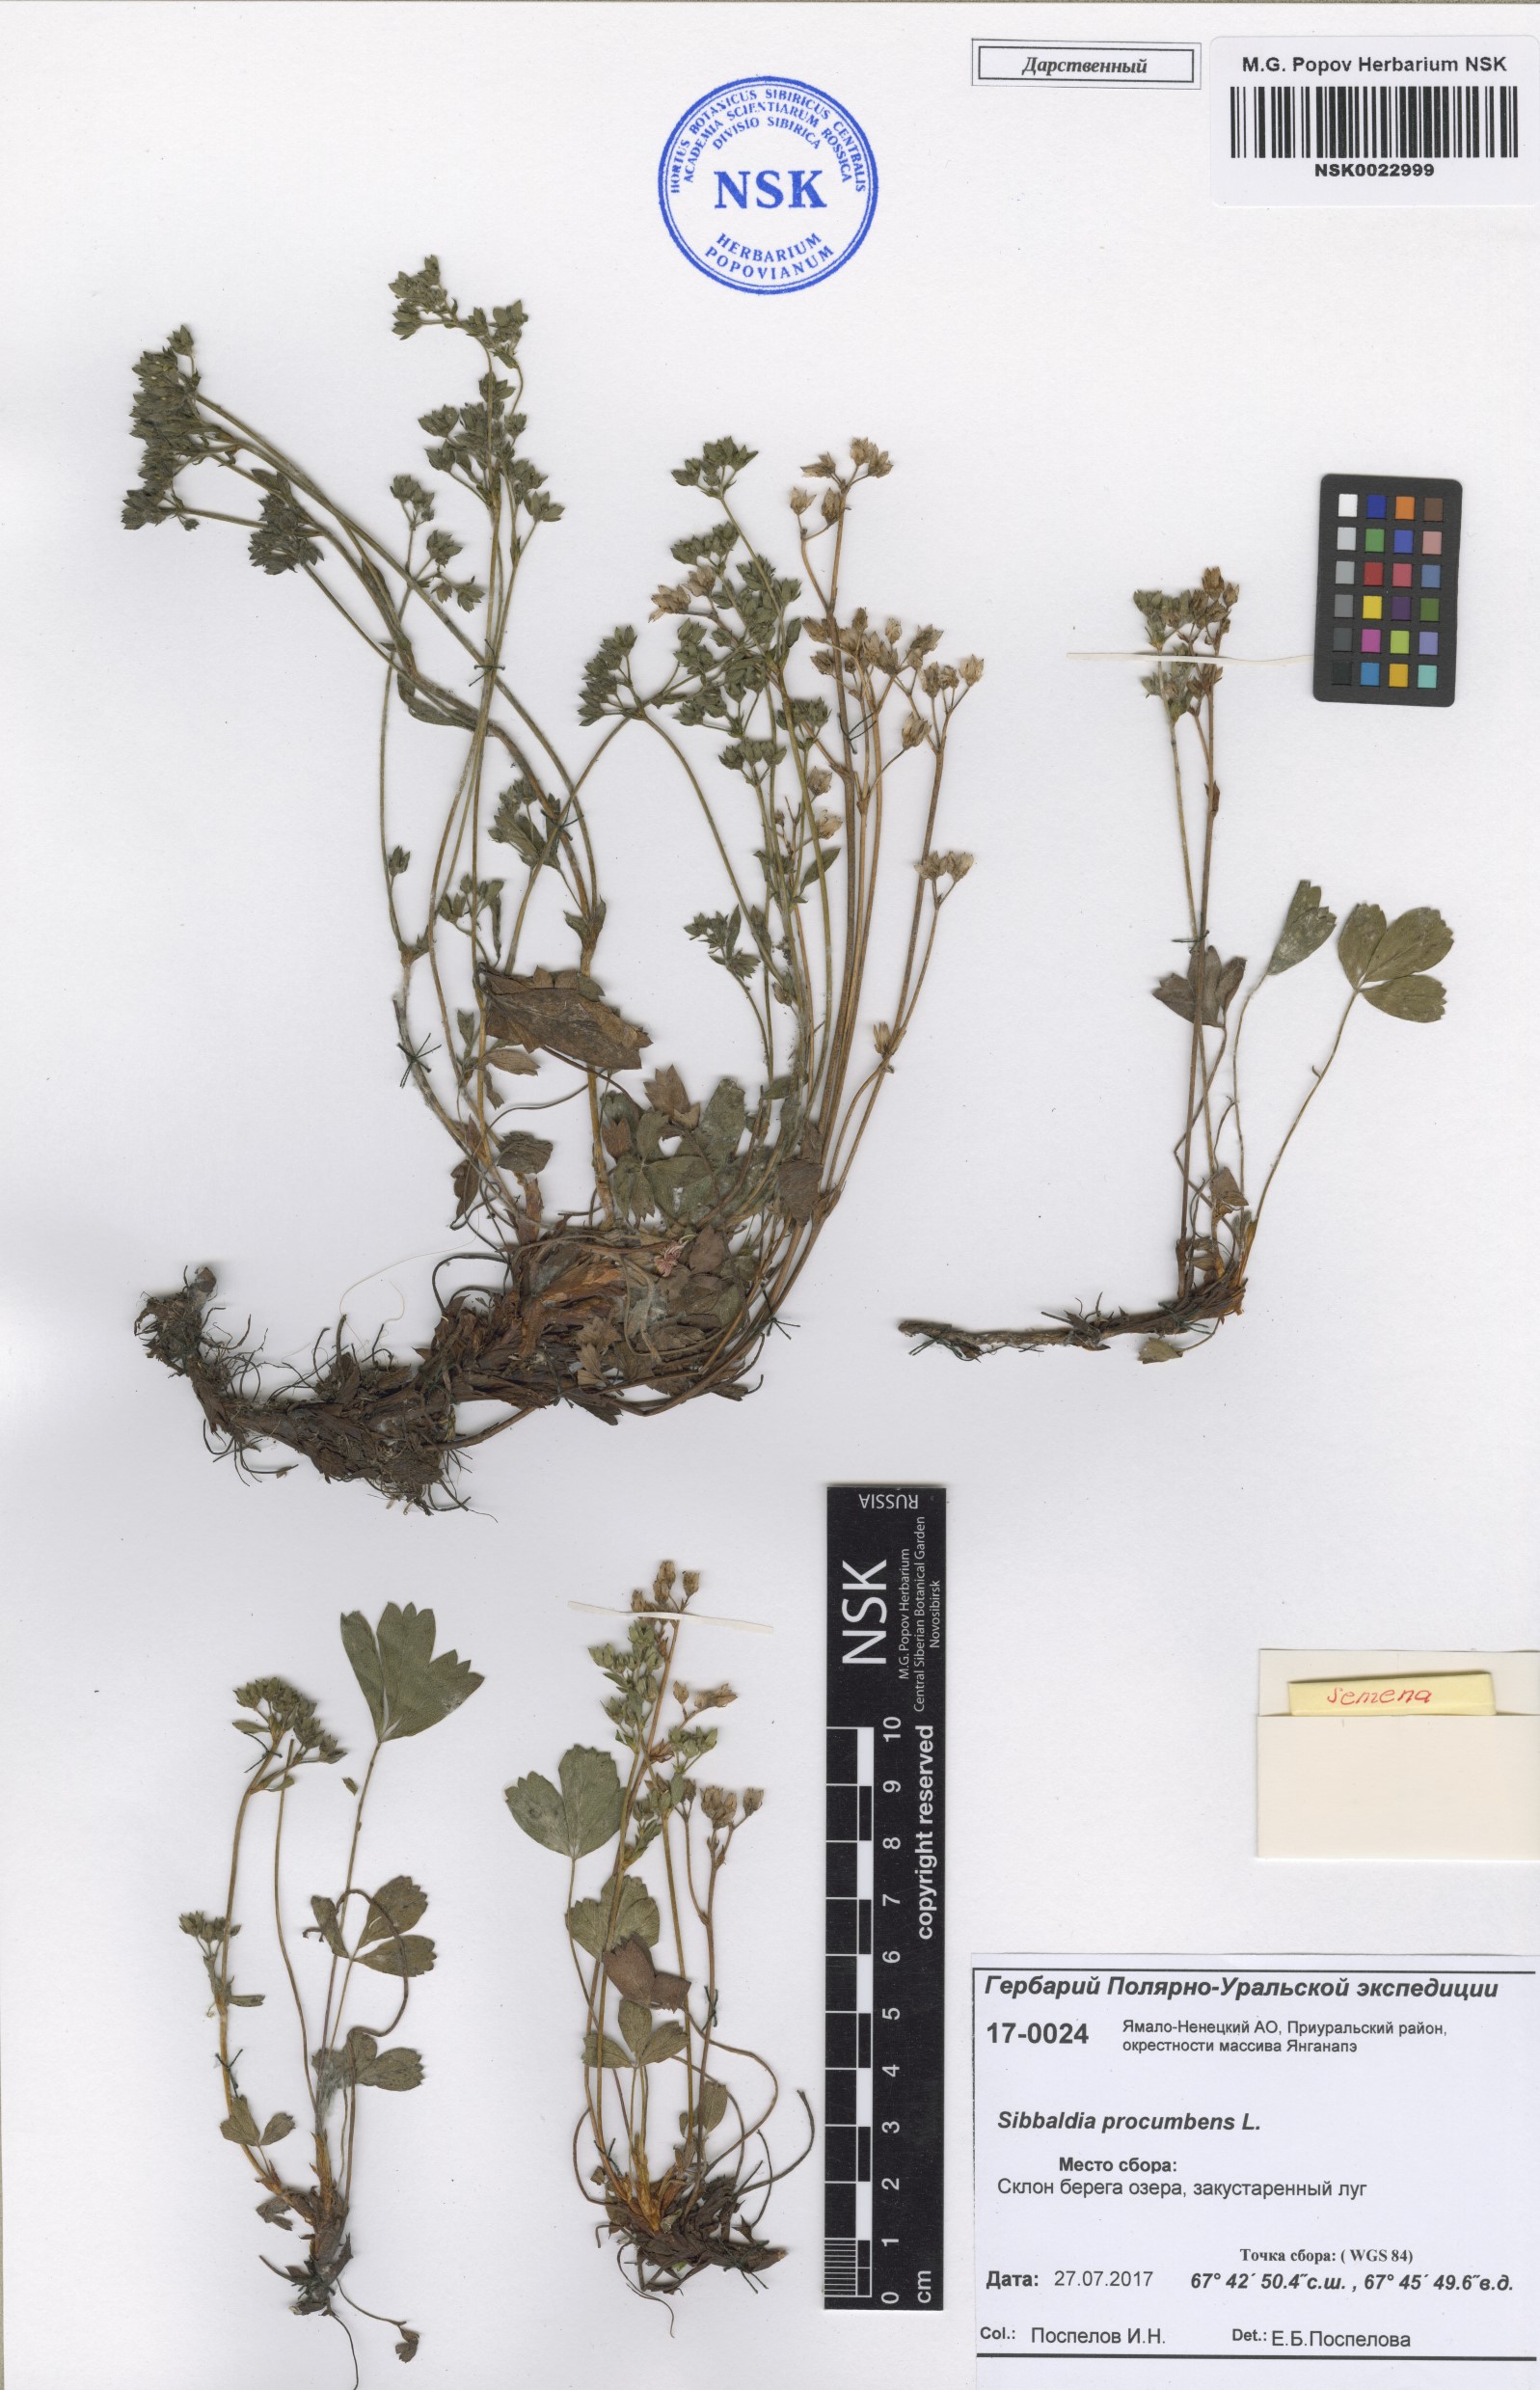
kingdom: Plantae
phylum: Tracheophyta
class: Magnoliopsida
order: Rosales
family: Rosaceae
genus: Sibbaldia
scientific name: Sibbaldia procumbens
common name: Creeping sibbaldia
